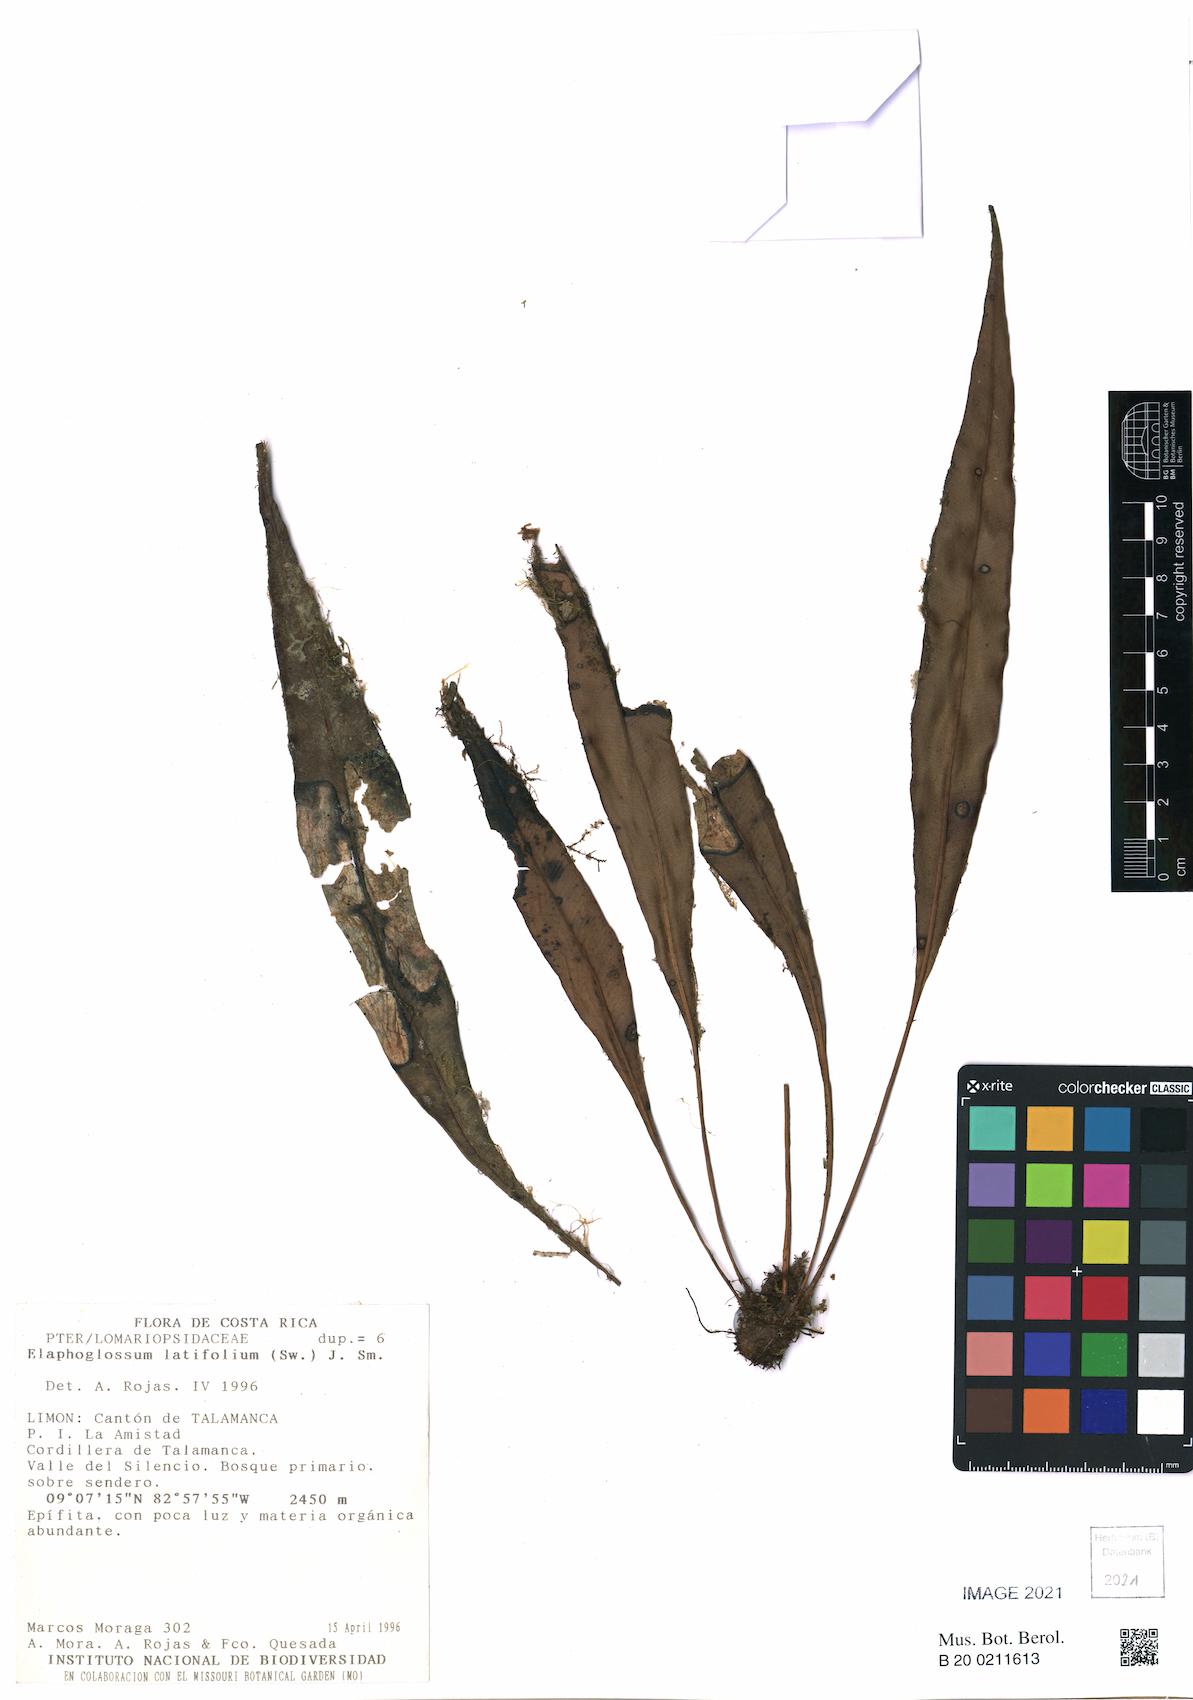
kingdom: Plantae
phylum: Tracheophyta
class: Polypodiopsida
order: Polypodiales
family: Dryopteridaceae
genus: Elaphoglossum
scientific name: Elaphoglossum latifolium
